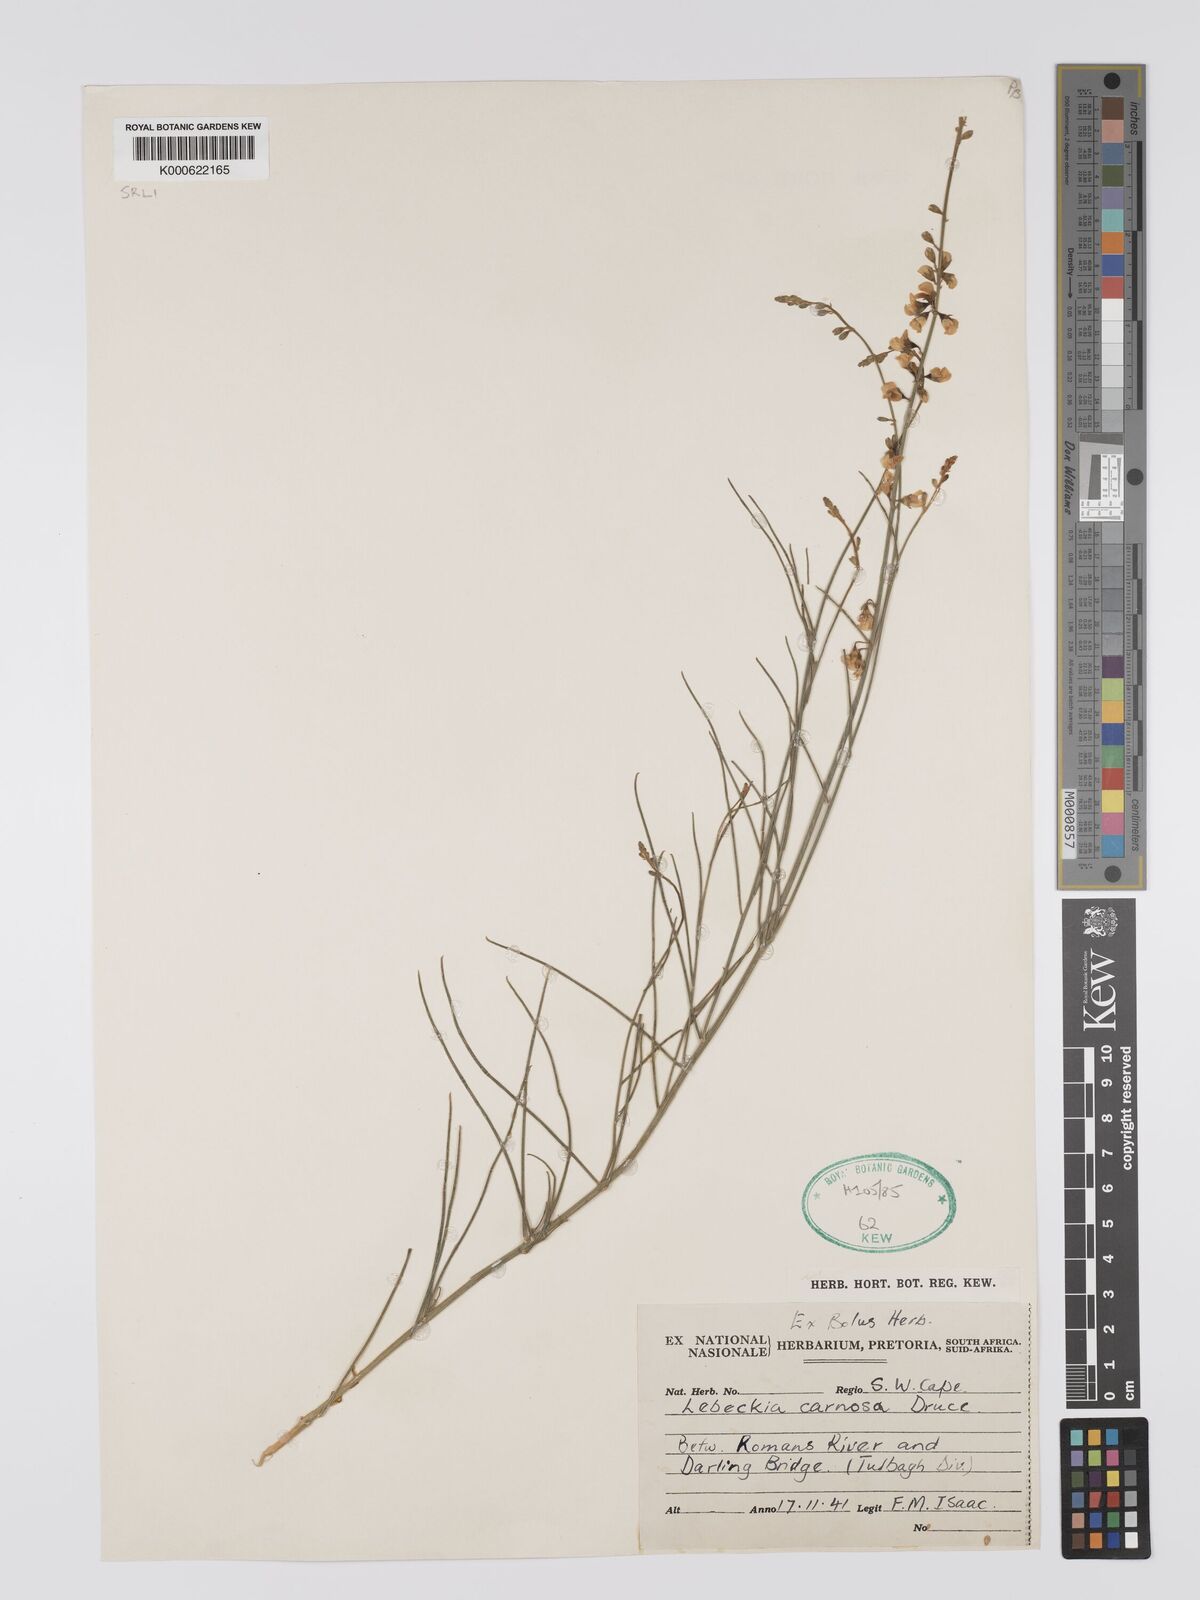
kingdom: Plantae
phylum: Tracheophyta
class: Magnoliopsida
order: Fabales
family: Fabaceae
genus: Lebeckia
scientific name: Lebeckia contaminata
